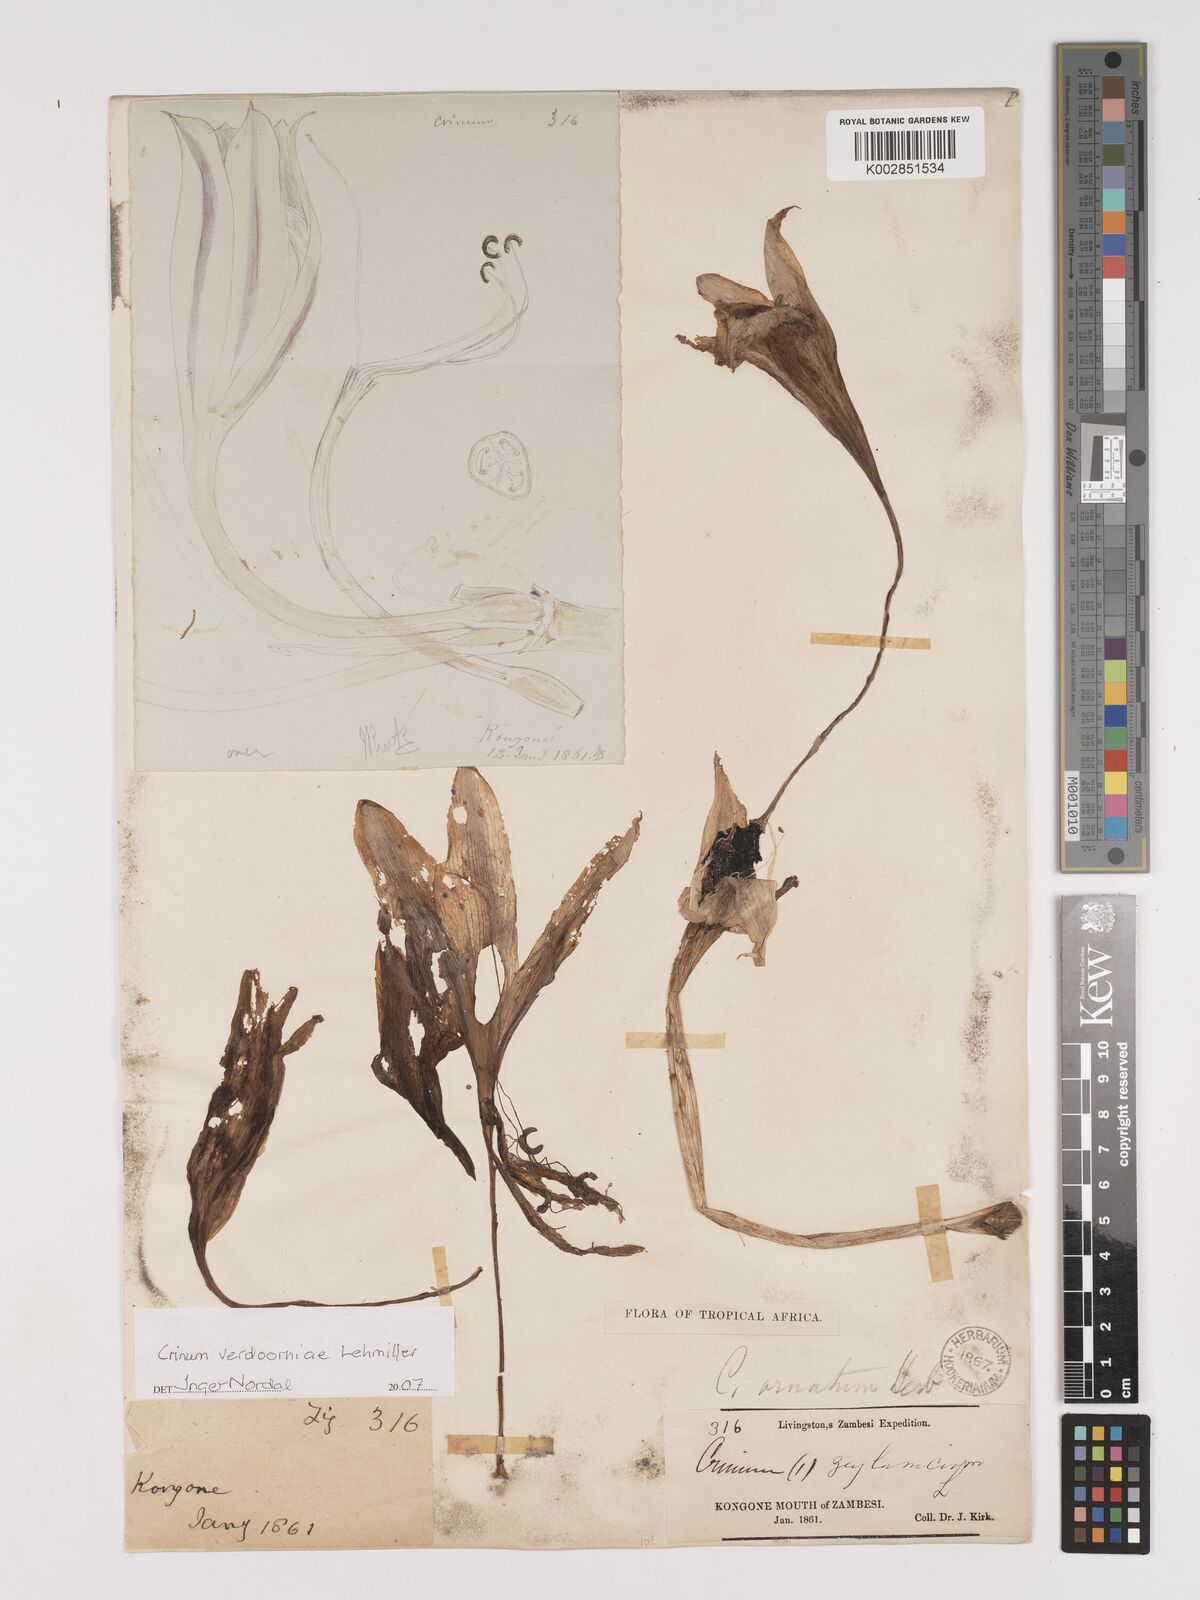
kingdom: Plantae
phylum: Tracheophyta
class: Liliopsida
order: Asparagales
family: Amaryllidaceae
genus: Crinum
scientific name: Crinum verdoorniae
